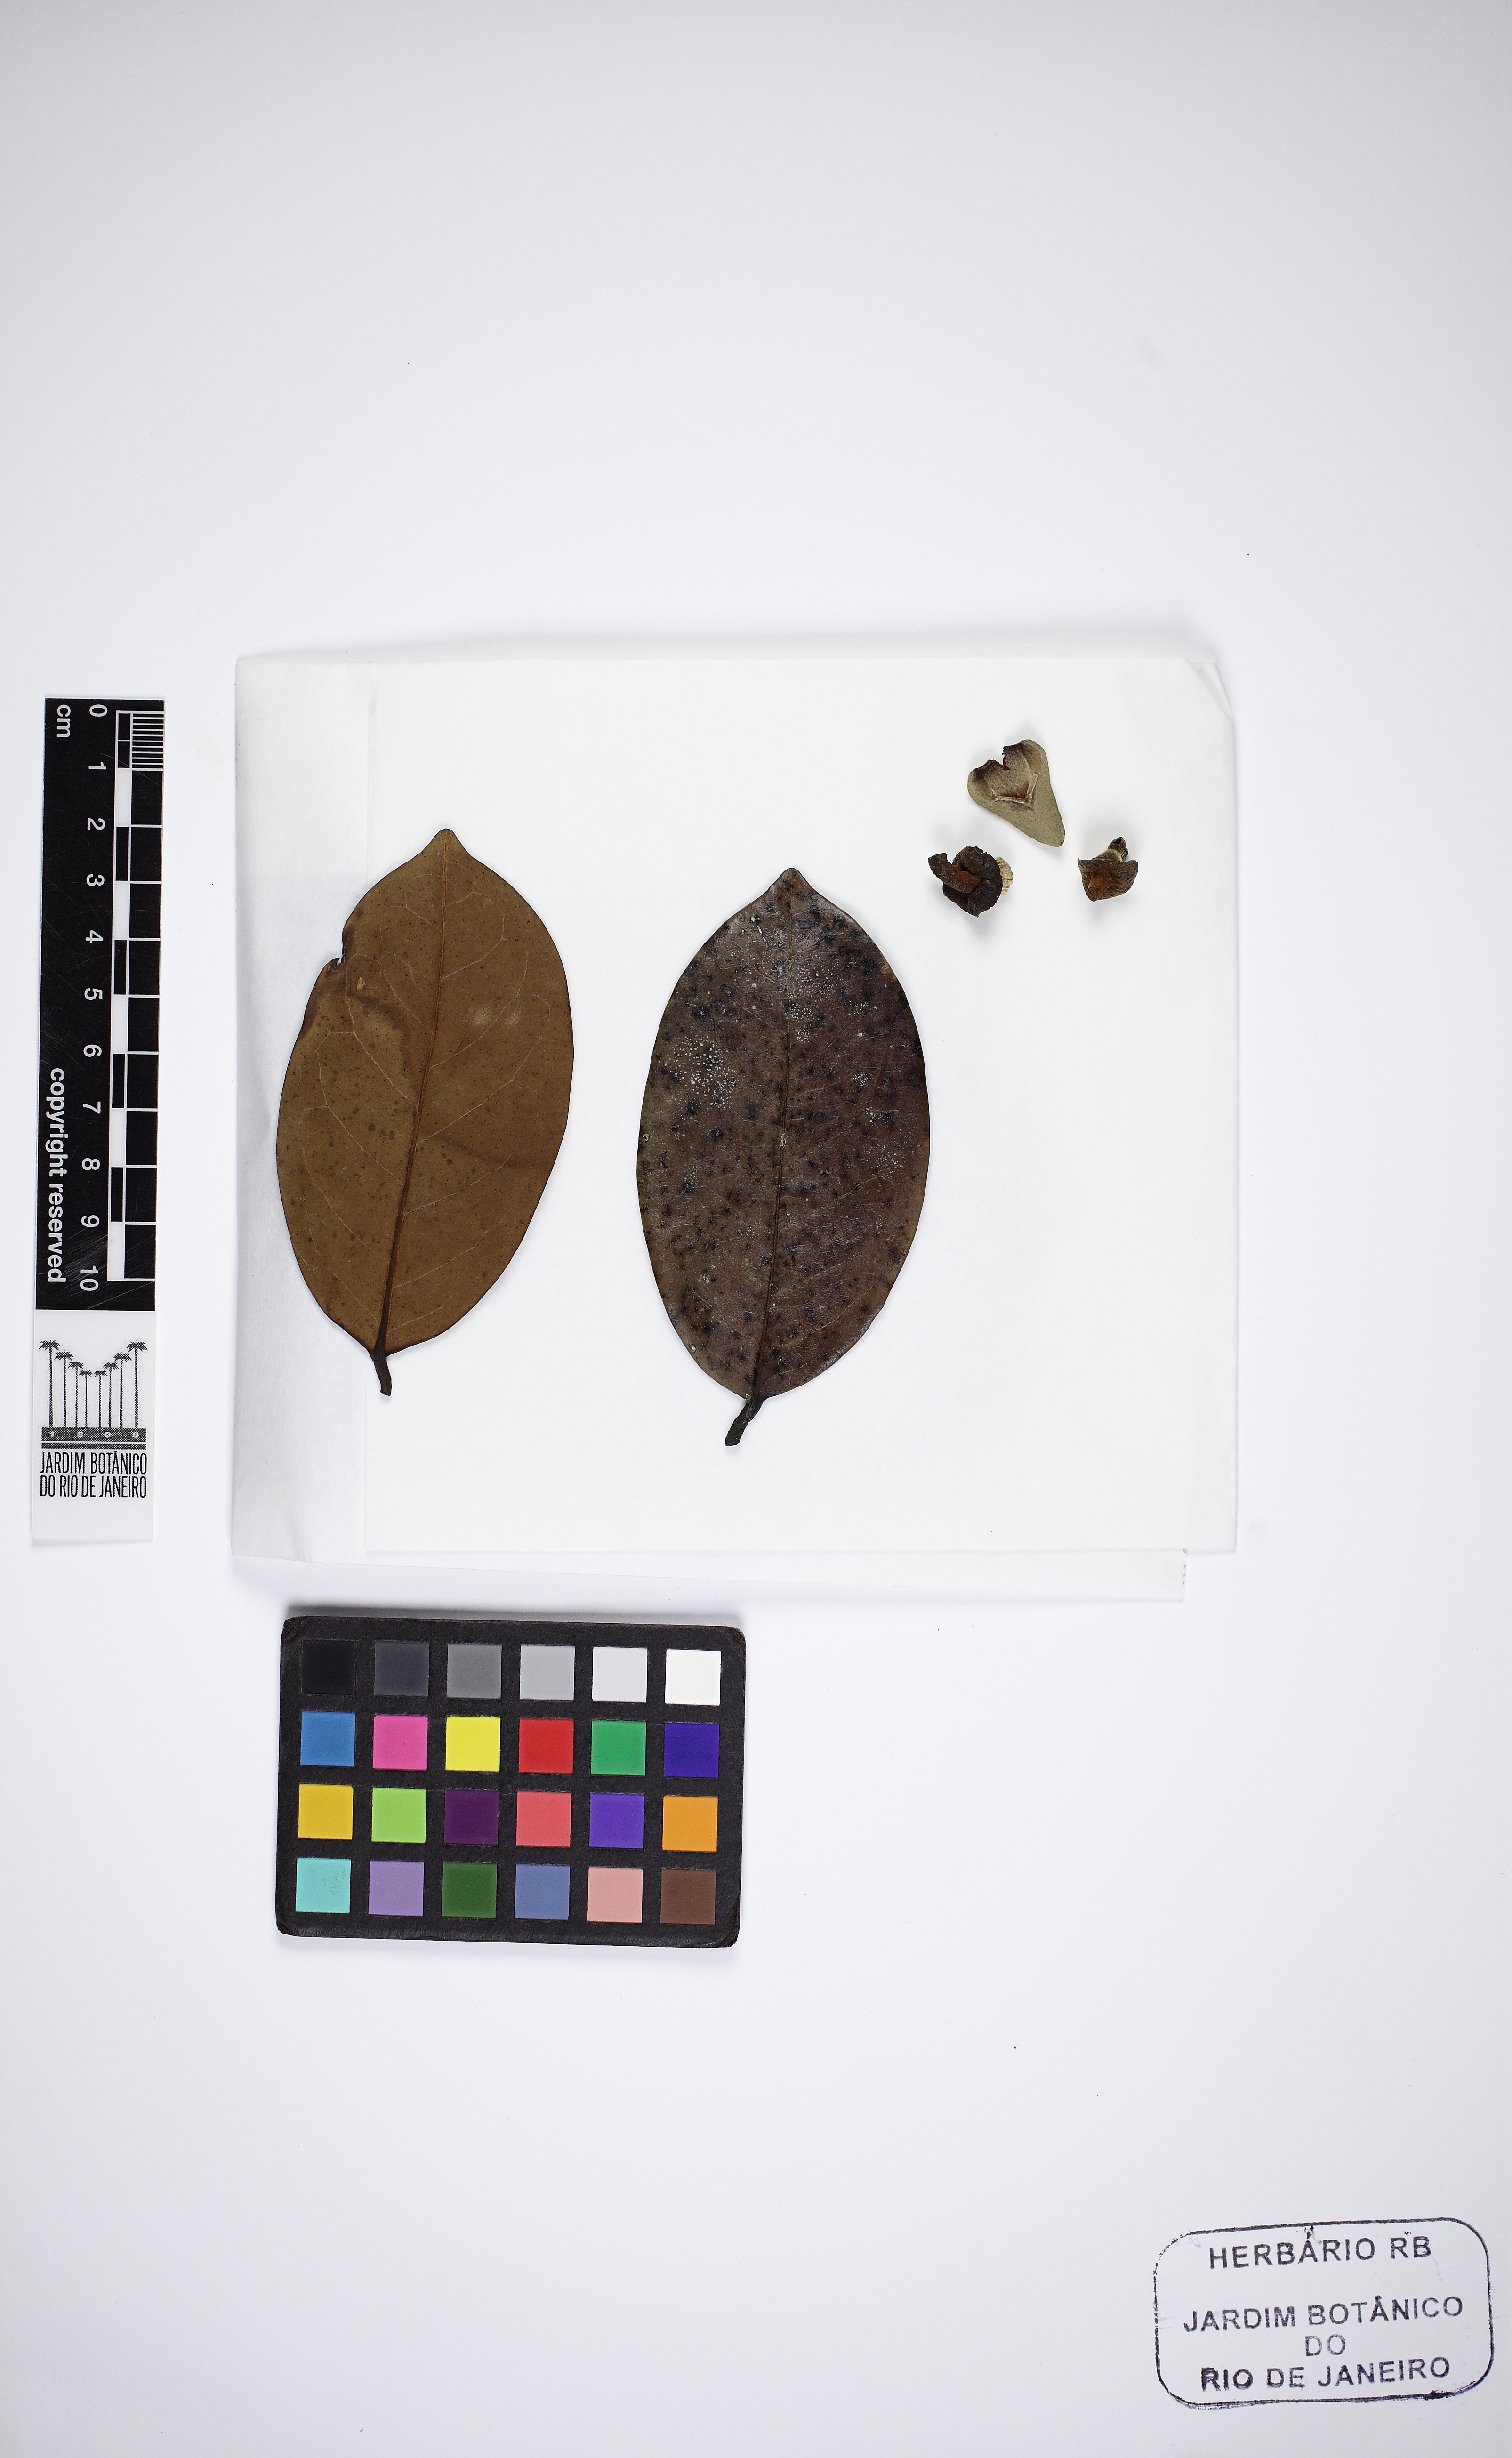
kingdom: Plantae
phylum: Tracheophyta
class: Magnoliopsida
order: Magnoliales
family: Annonaceae
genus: Annona
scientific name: Annona salzmannii
